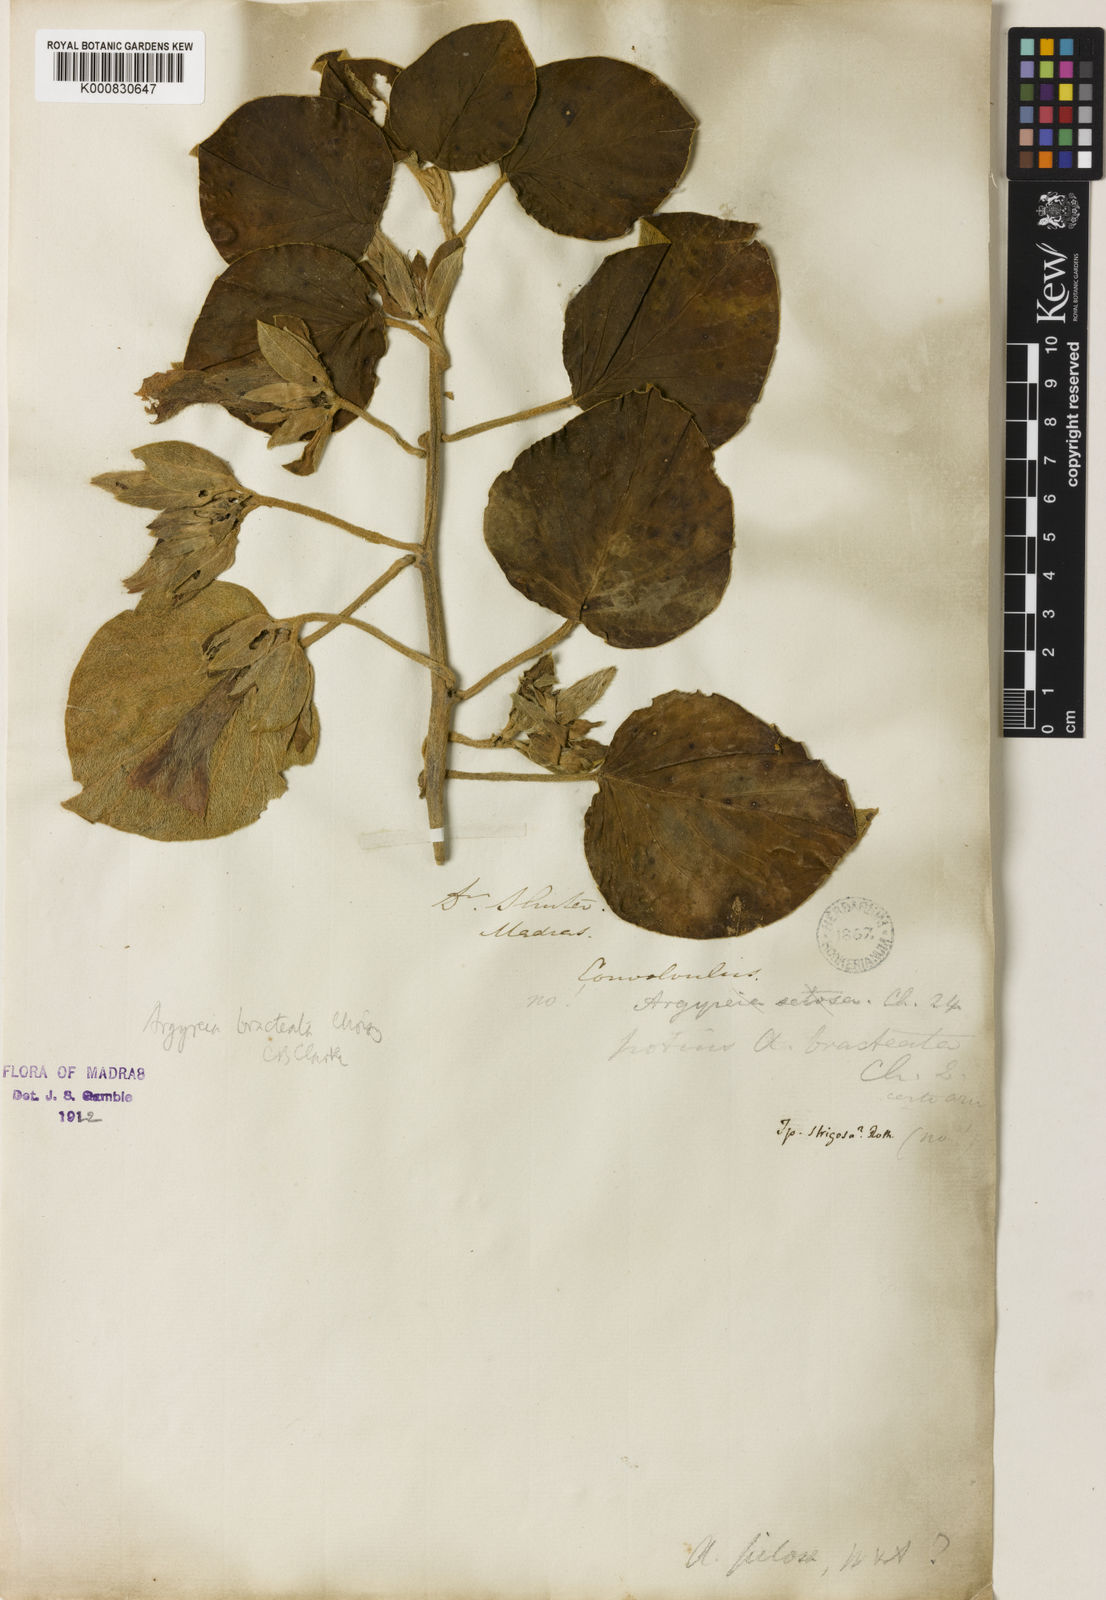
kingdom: Plantae
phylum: Tracheophyta
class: Magnoliopsida
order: Solanales
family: Convolvulaceae
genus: Argyreia
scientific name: Argyreia bracteata
